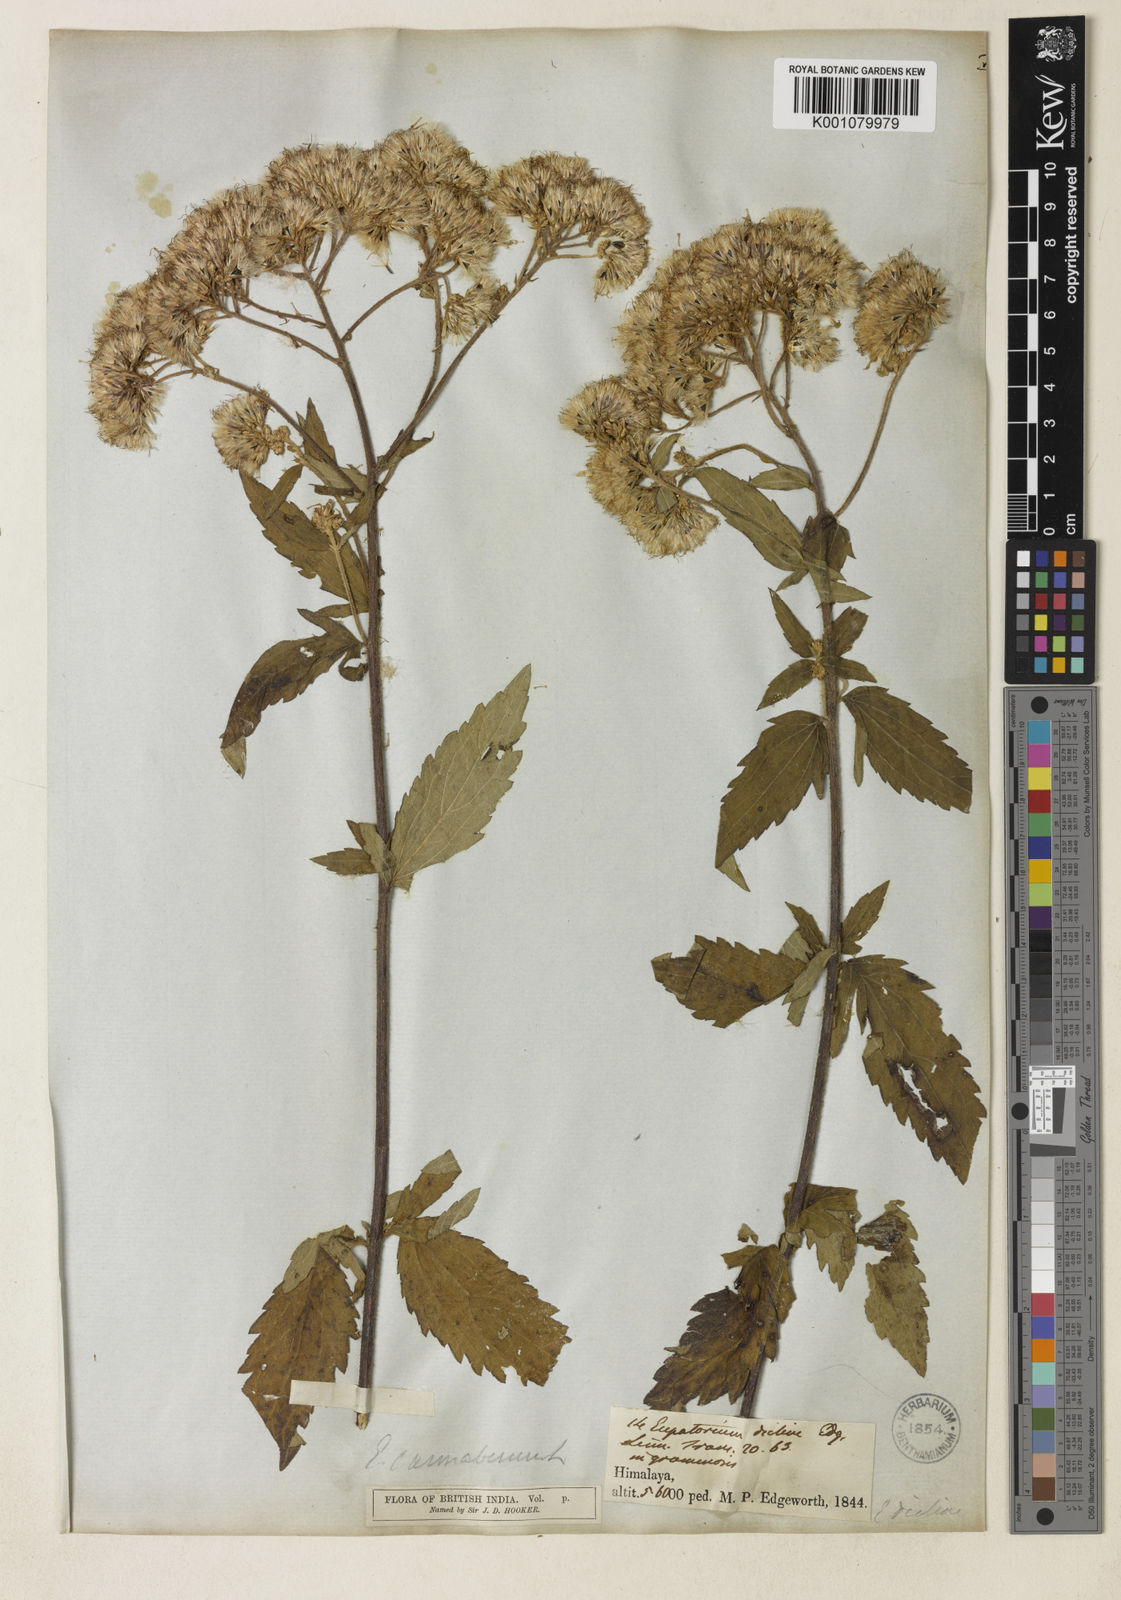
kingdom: Plantae
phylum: Tracheophyta
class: Magnoliopsida
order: Asterales
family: Asteraceae
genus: Eupatorium
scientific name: Eupatorium reevesii
